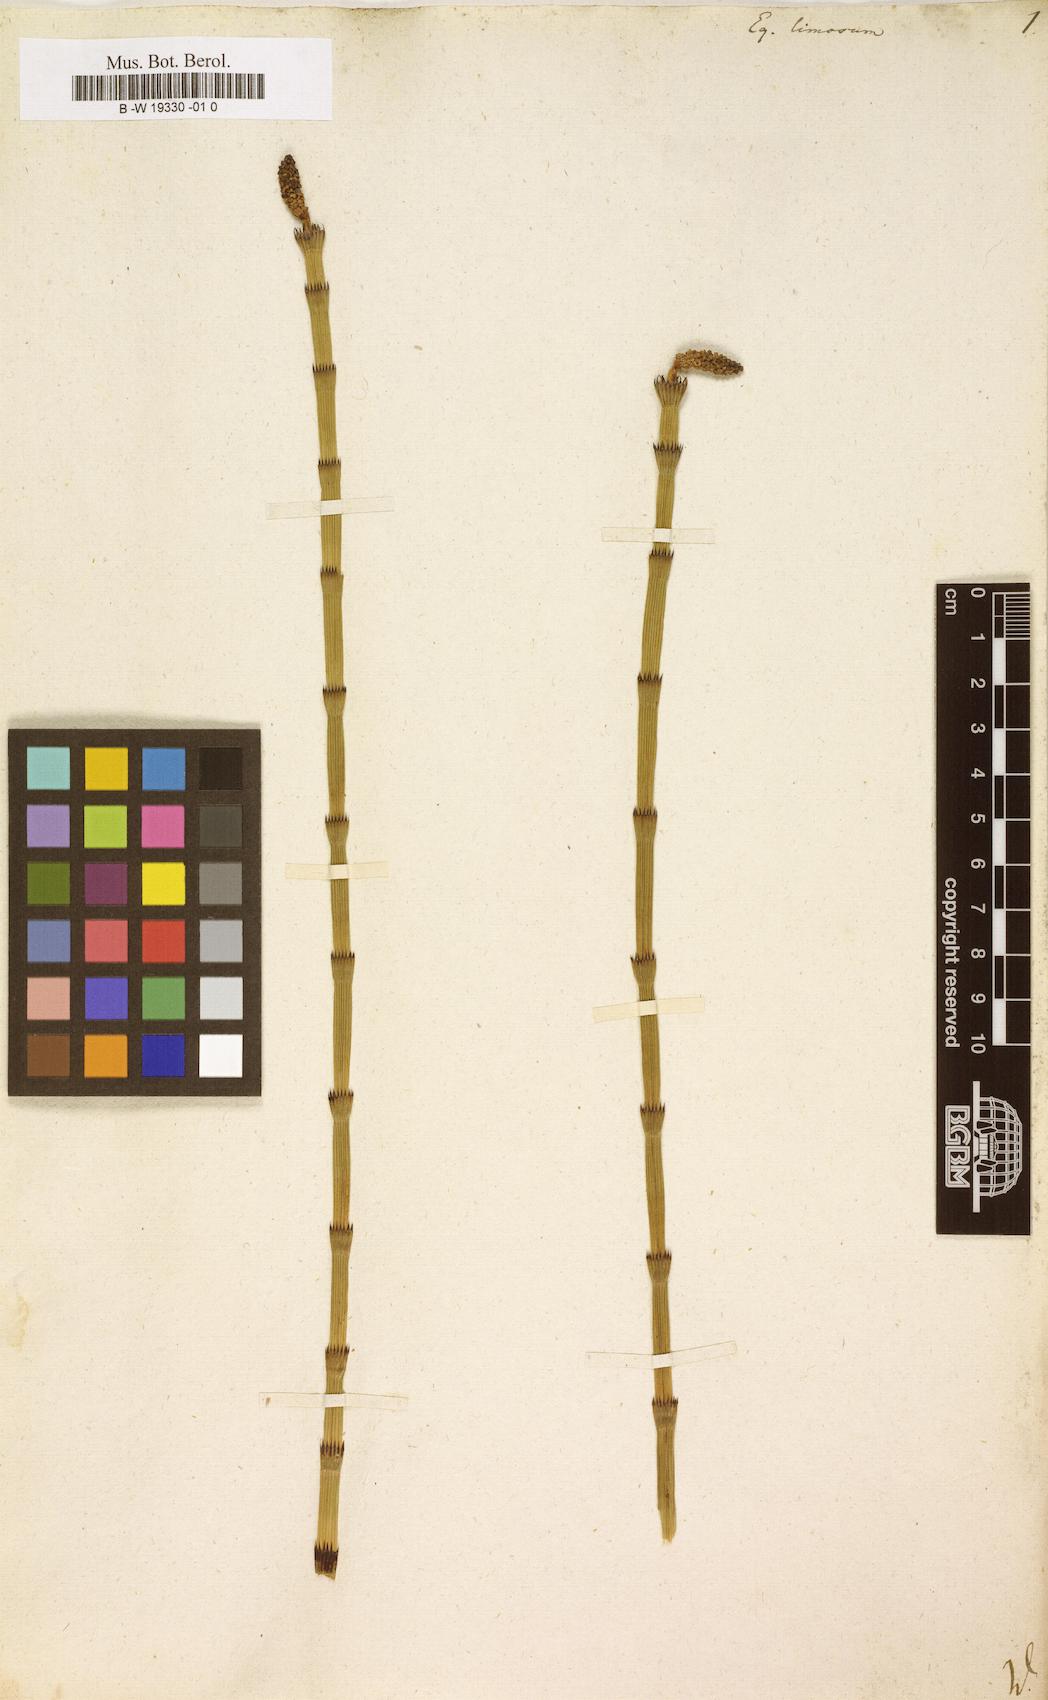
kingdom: Plantae
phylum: Tracheophyta
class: Polypodiopsida
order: Equisetales
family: Equisetaceae
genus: Equisetum
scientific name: Equisetum fluviatile
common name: Water horsetail
